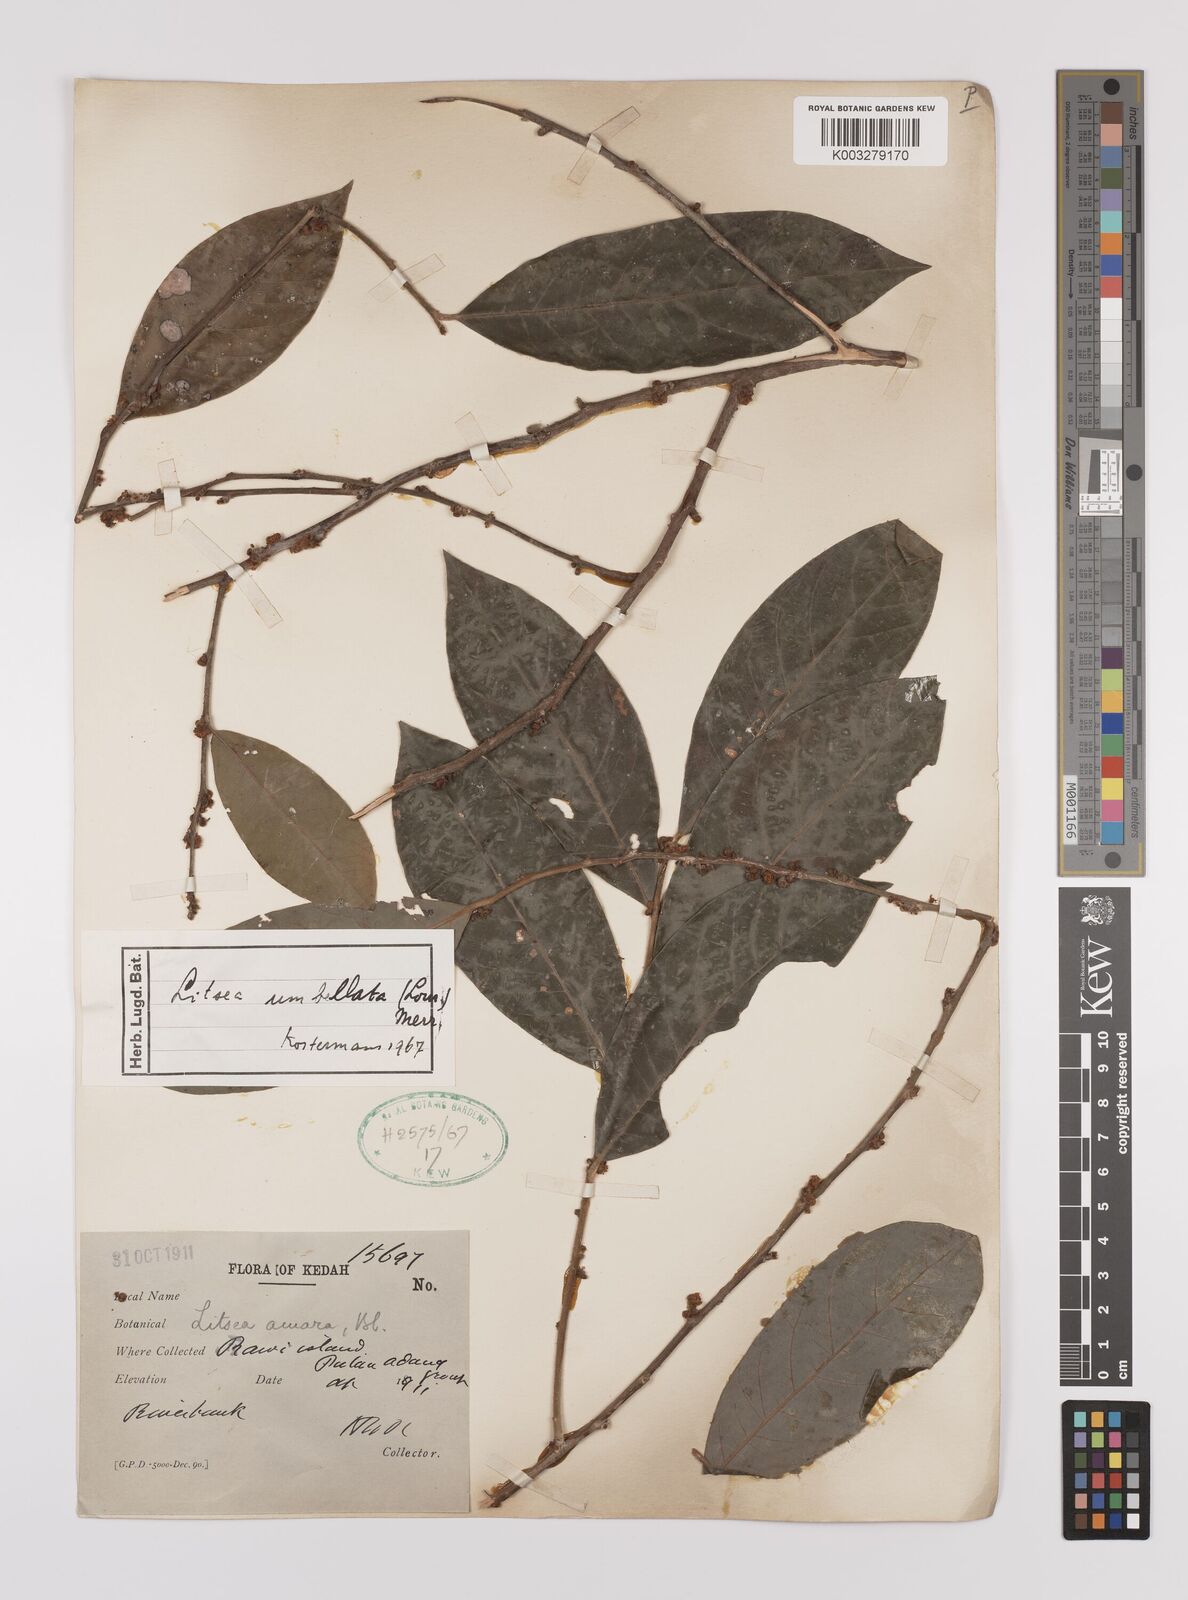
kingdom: Plantae
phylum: Tracheophyta
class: Magnoliopsida
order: Laurales
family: Lauraceae
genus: Litsea
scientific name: Litsea umbellata
